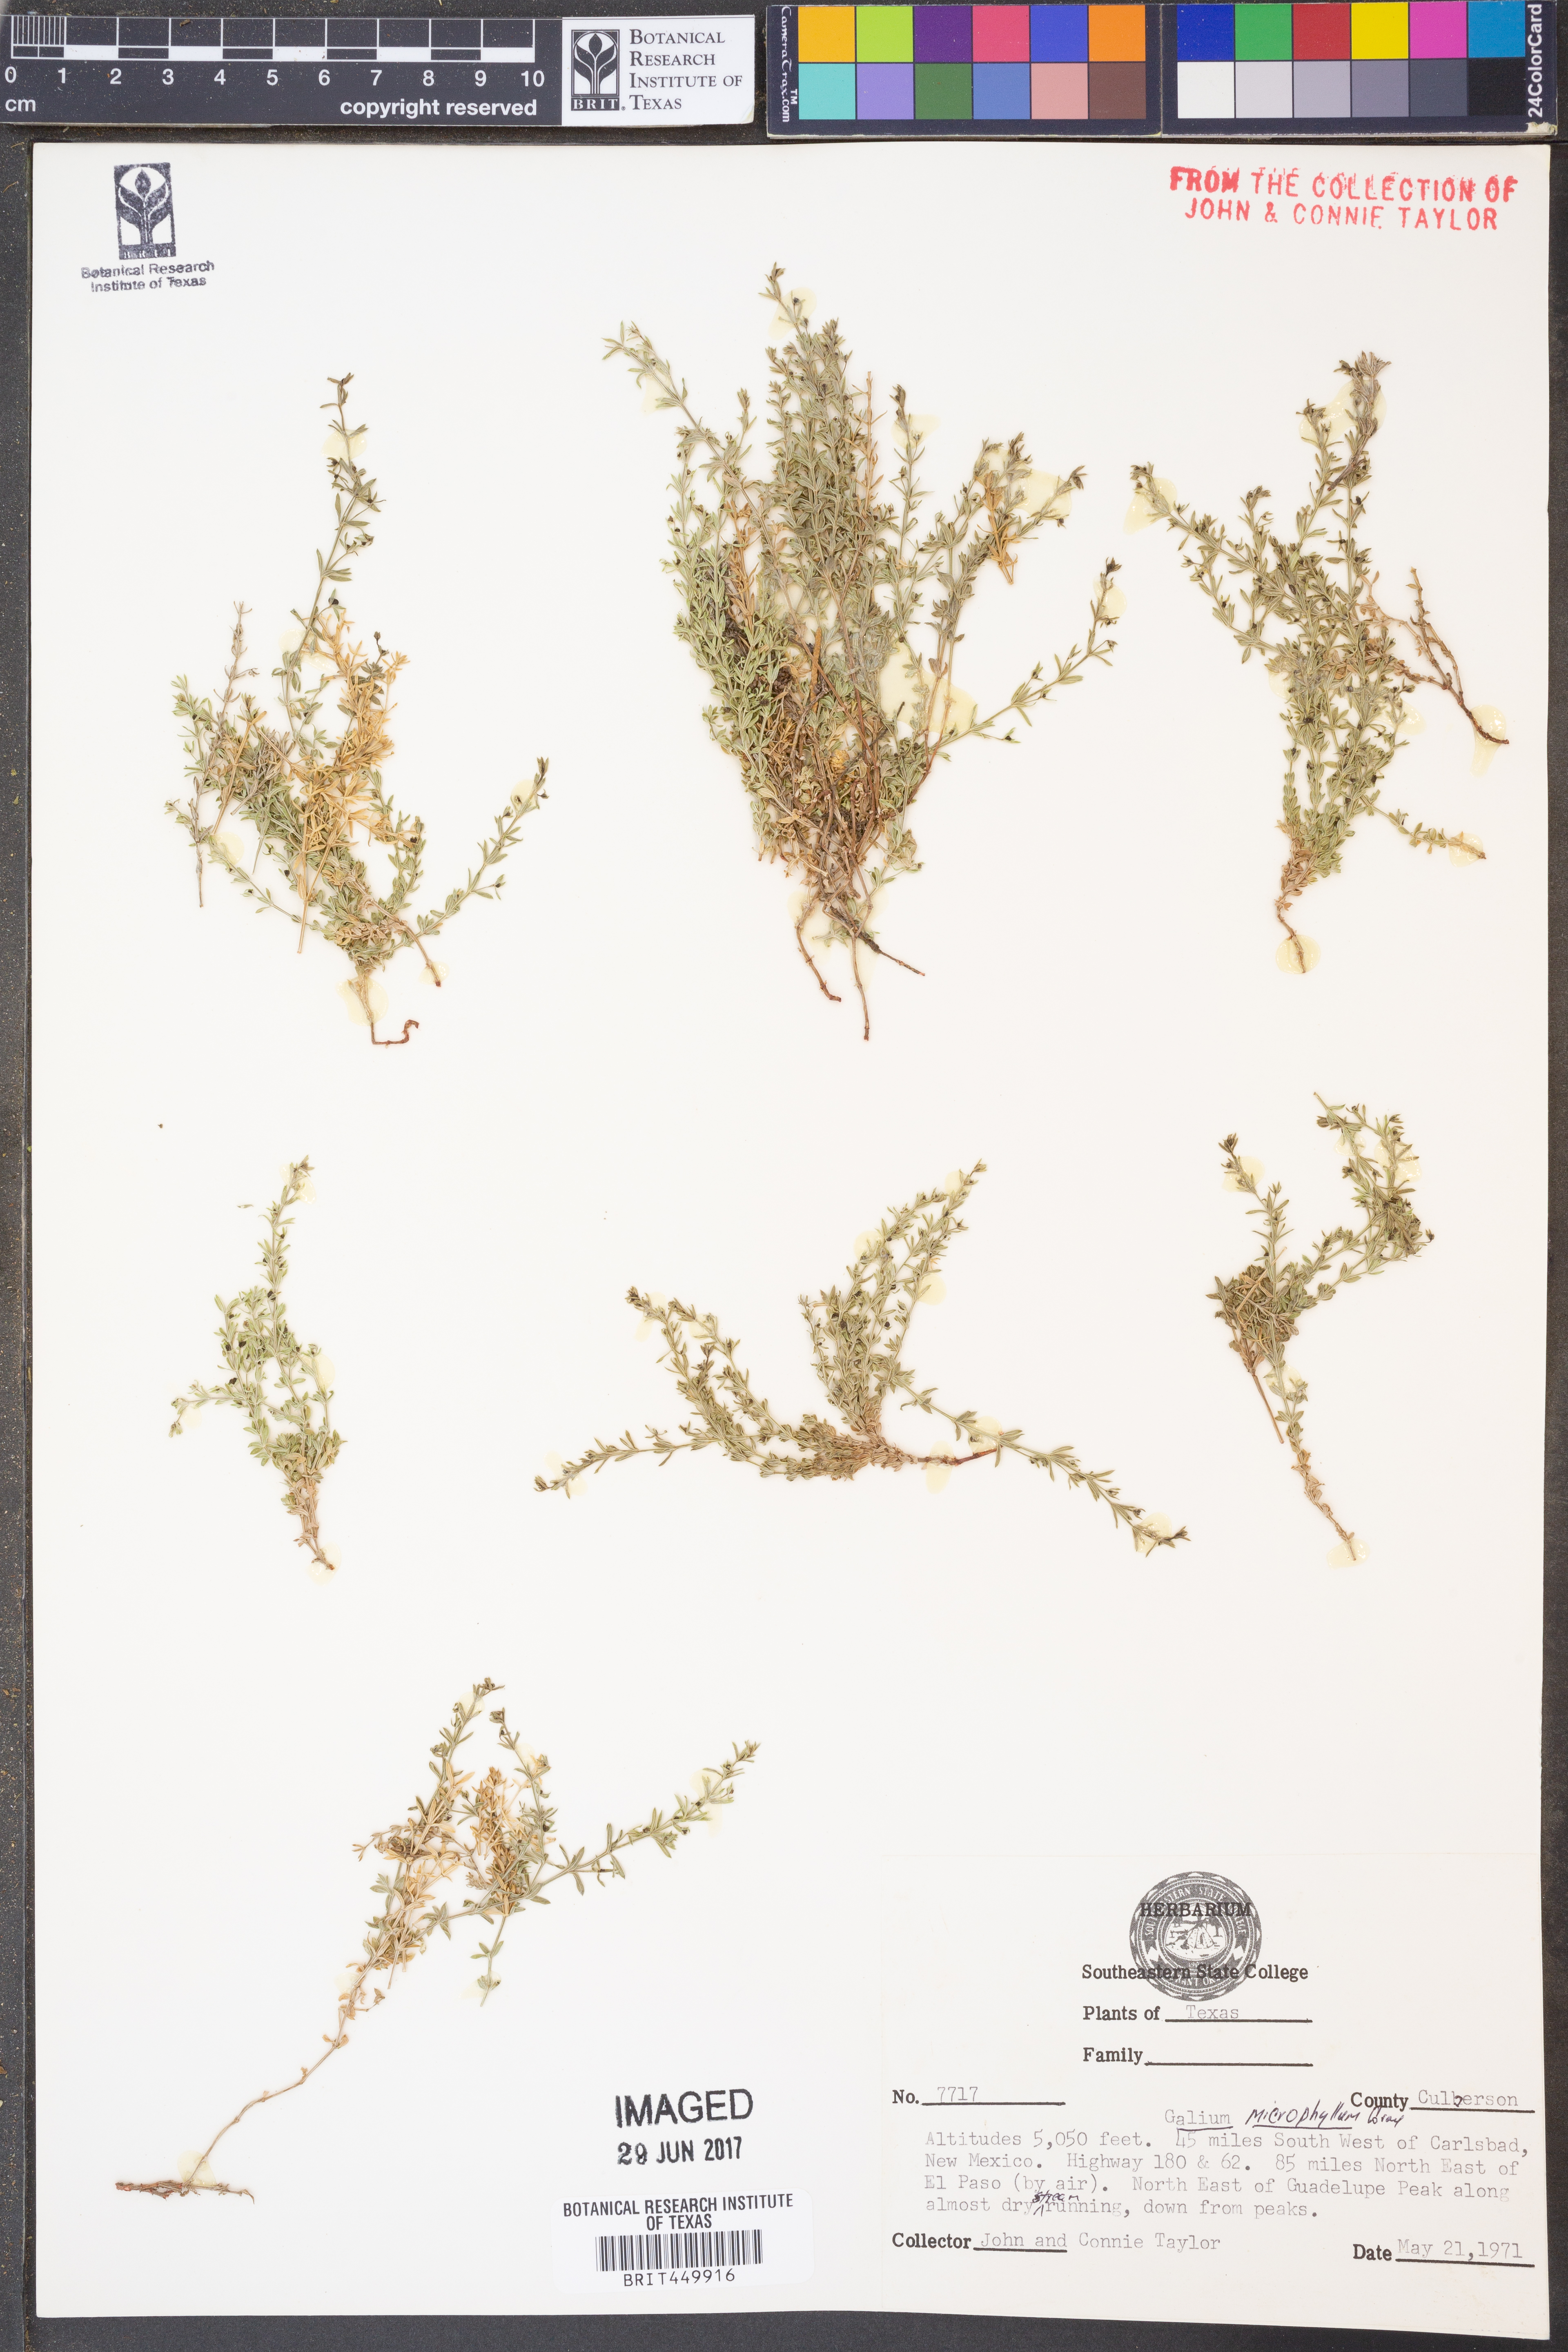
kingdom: Plantae
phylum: Tracheophyta
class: Magnoliopsida
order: Gentianales
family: Rubiaceae
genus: Galium
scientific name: Galium microphyllum
